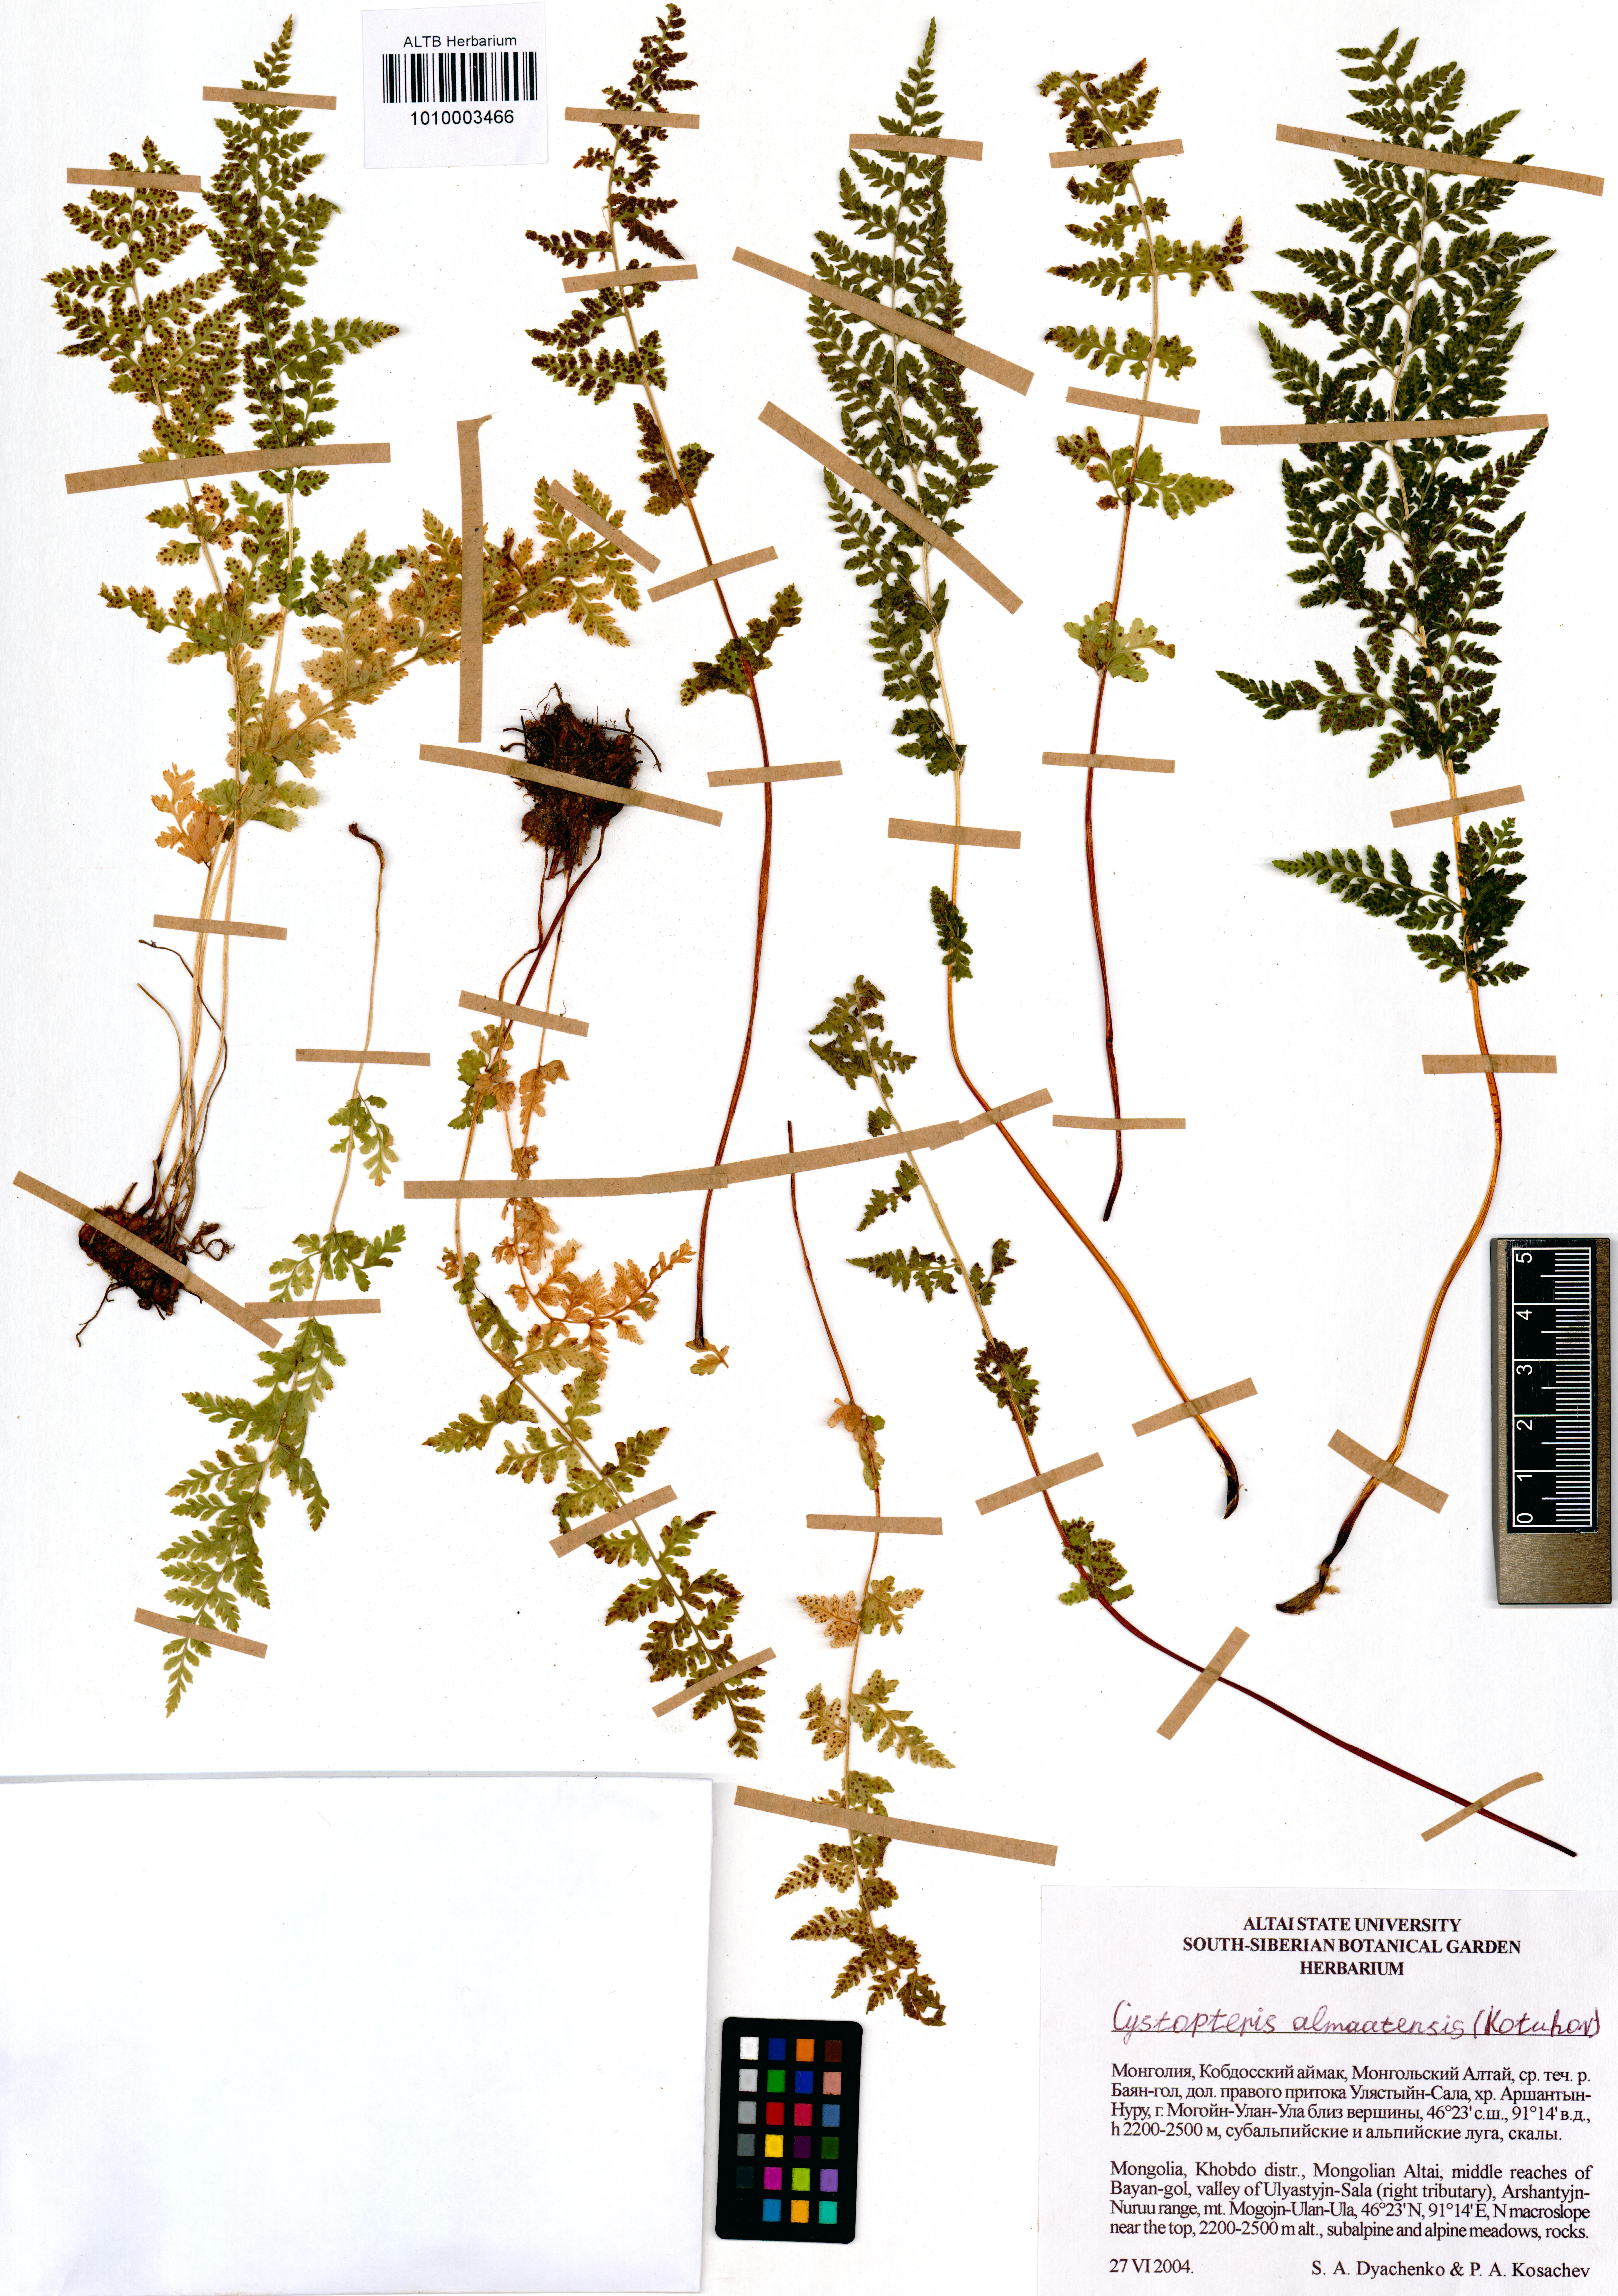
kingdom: Plantae
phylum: Tracheophyta
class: Polypodiopsida
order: Polypodiales
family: Cystopteridaceae
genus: Cystopteris
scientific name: Cystopteris dickieana
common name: Dickie's bladder-fern
